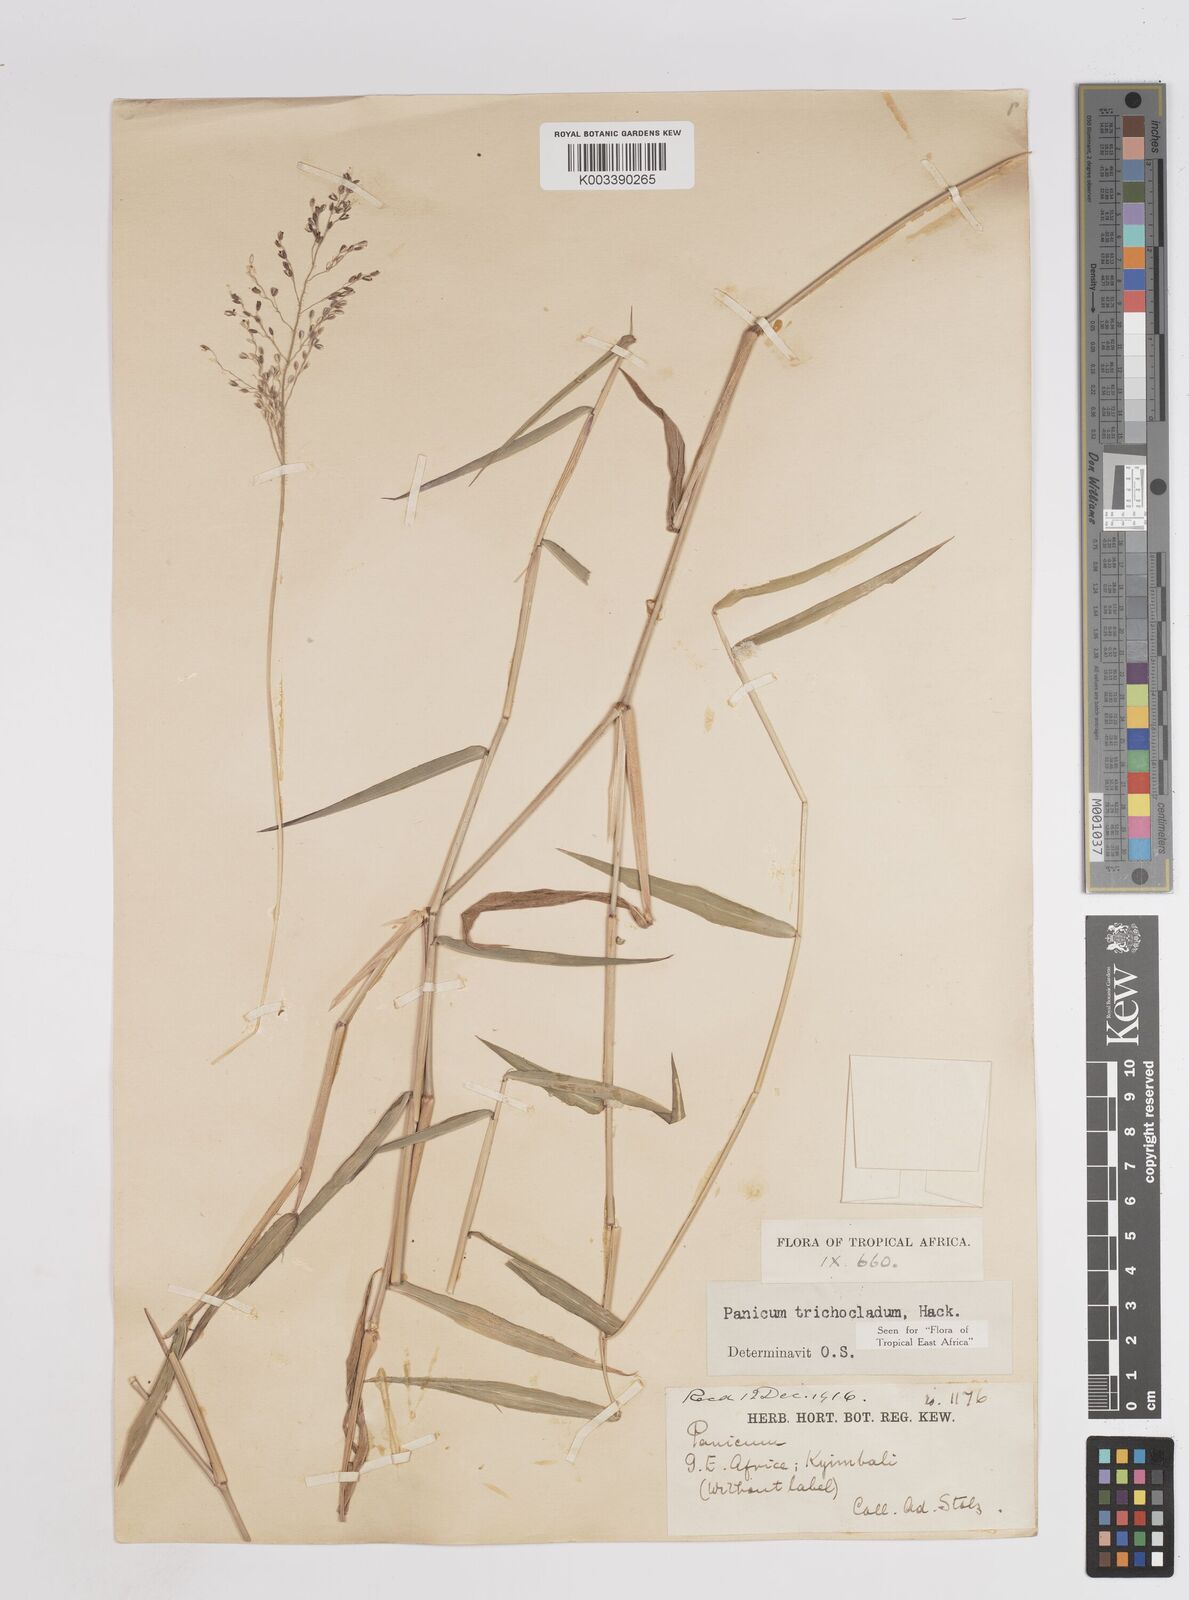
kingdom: Plantae
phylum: Tracheophyta
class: Liliopsida
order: Poales
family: Poaceae
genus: Panicum
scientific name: Panicum trichocladum
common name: Donkey grass
